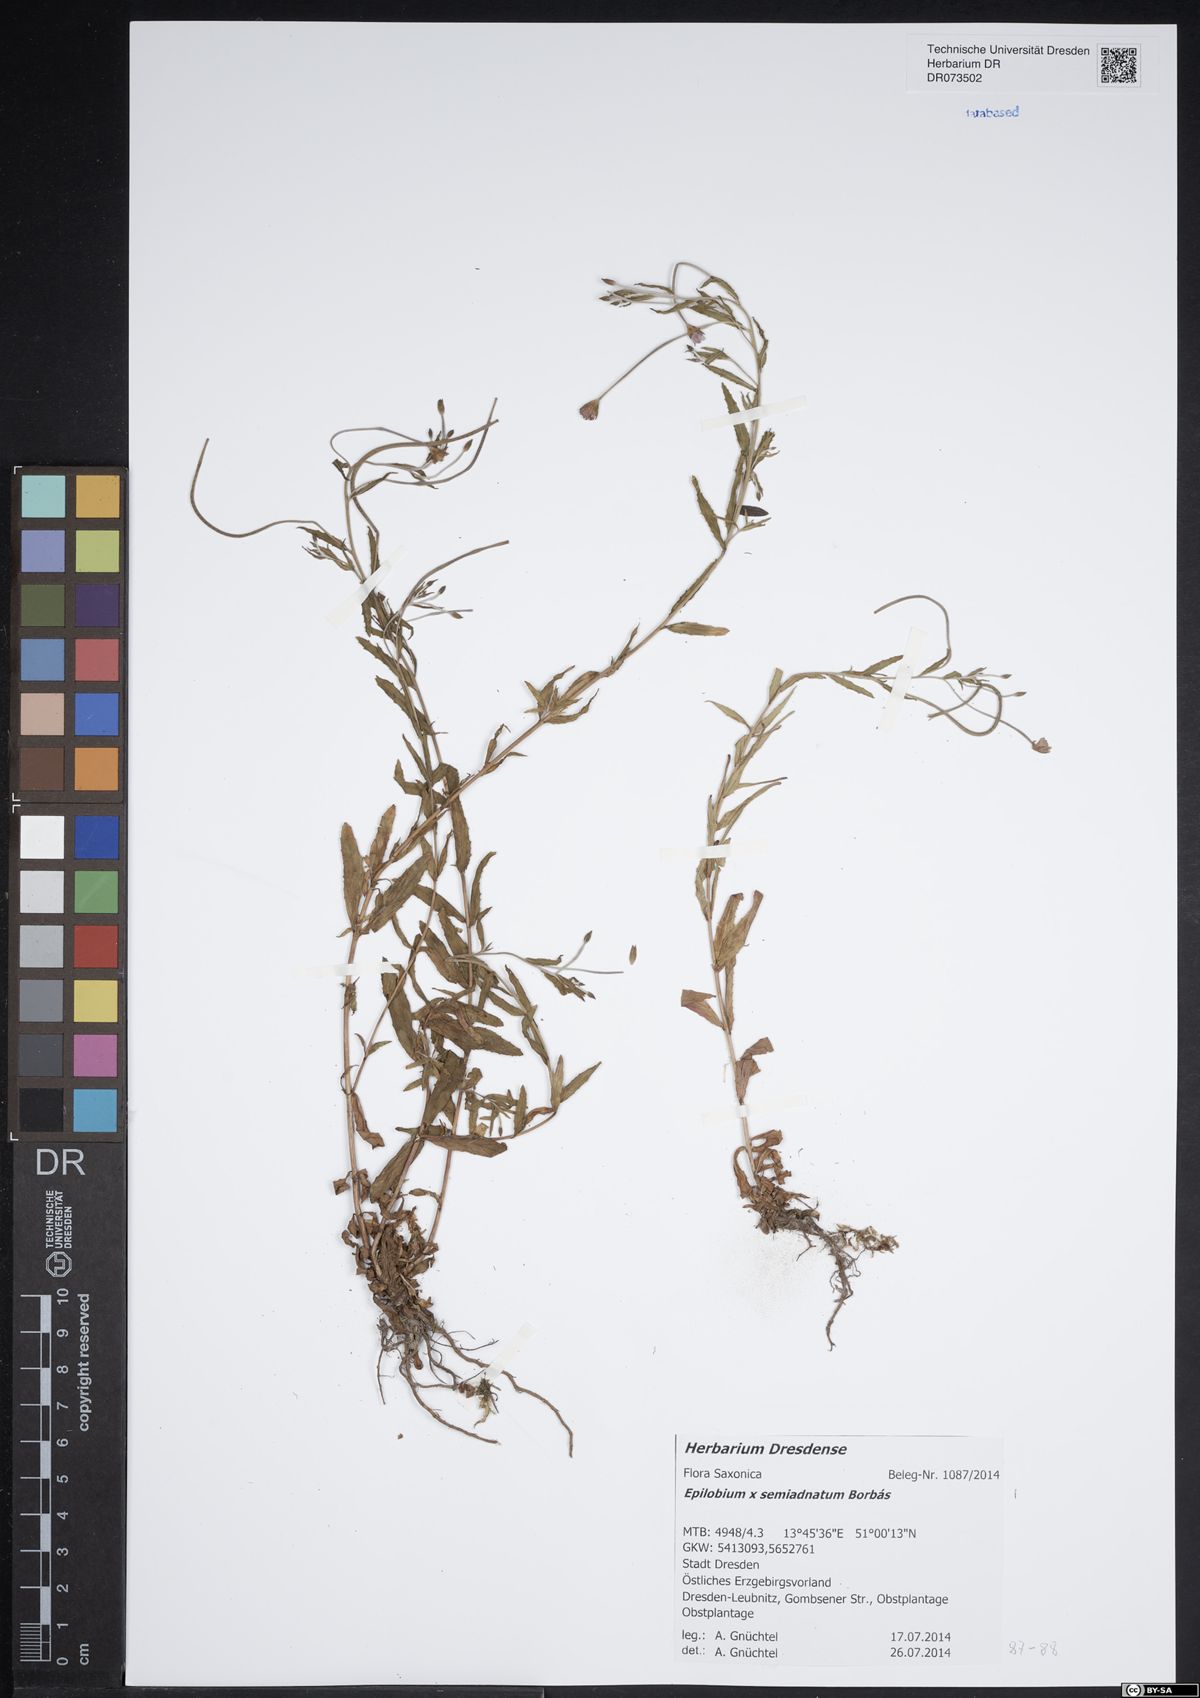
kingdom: Plantae
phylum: Tracheophyta
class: Magnoliopsida
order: Myrtales
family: Onagraceae
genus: Epilobium
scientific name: Epilobium semiadnatum
